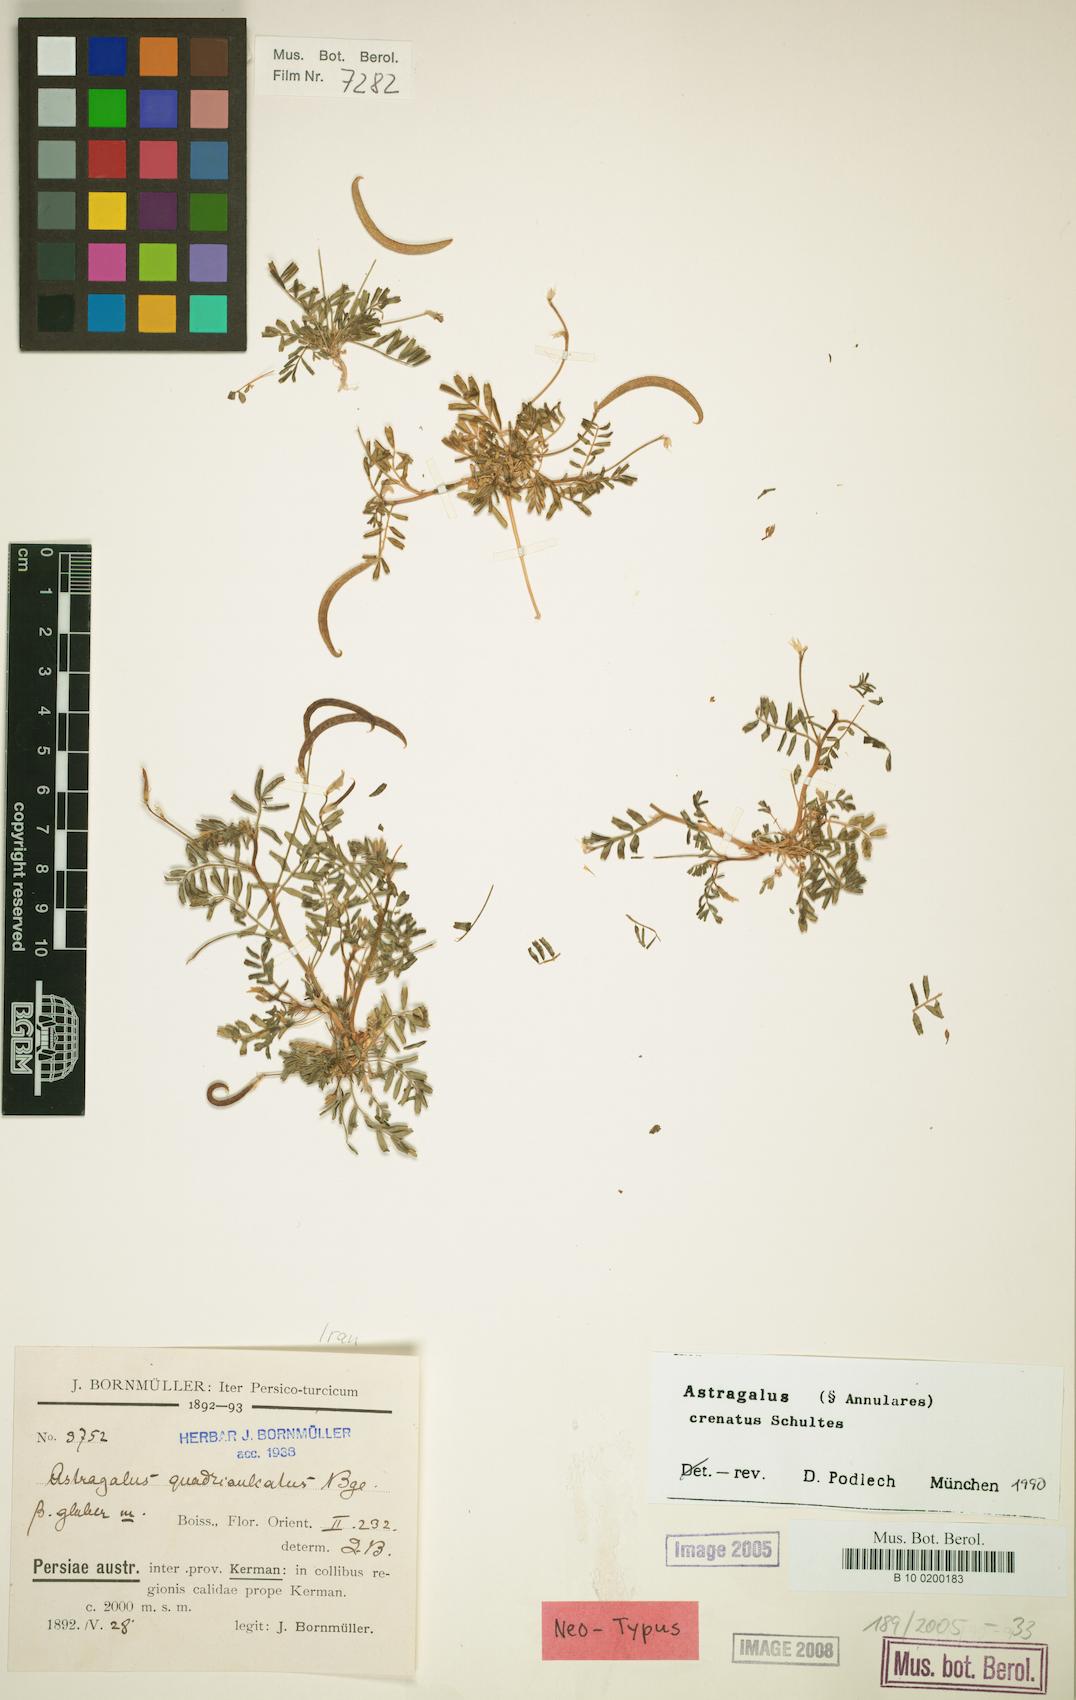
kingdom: Plantae
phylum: Tracheophyta
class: Magnoliopsida
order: Fabales
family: Fabaceae
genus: Astragalus
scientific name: Astragalus crenatus
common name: Milk vetch
